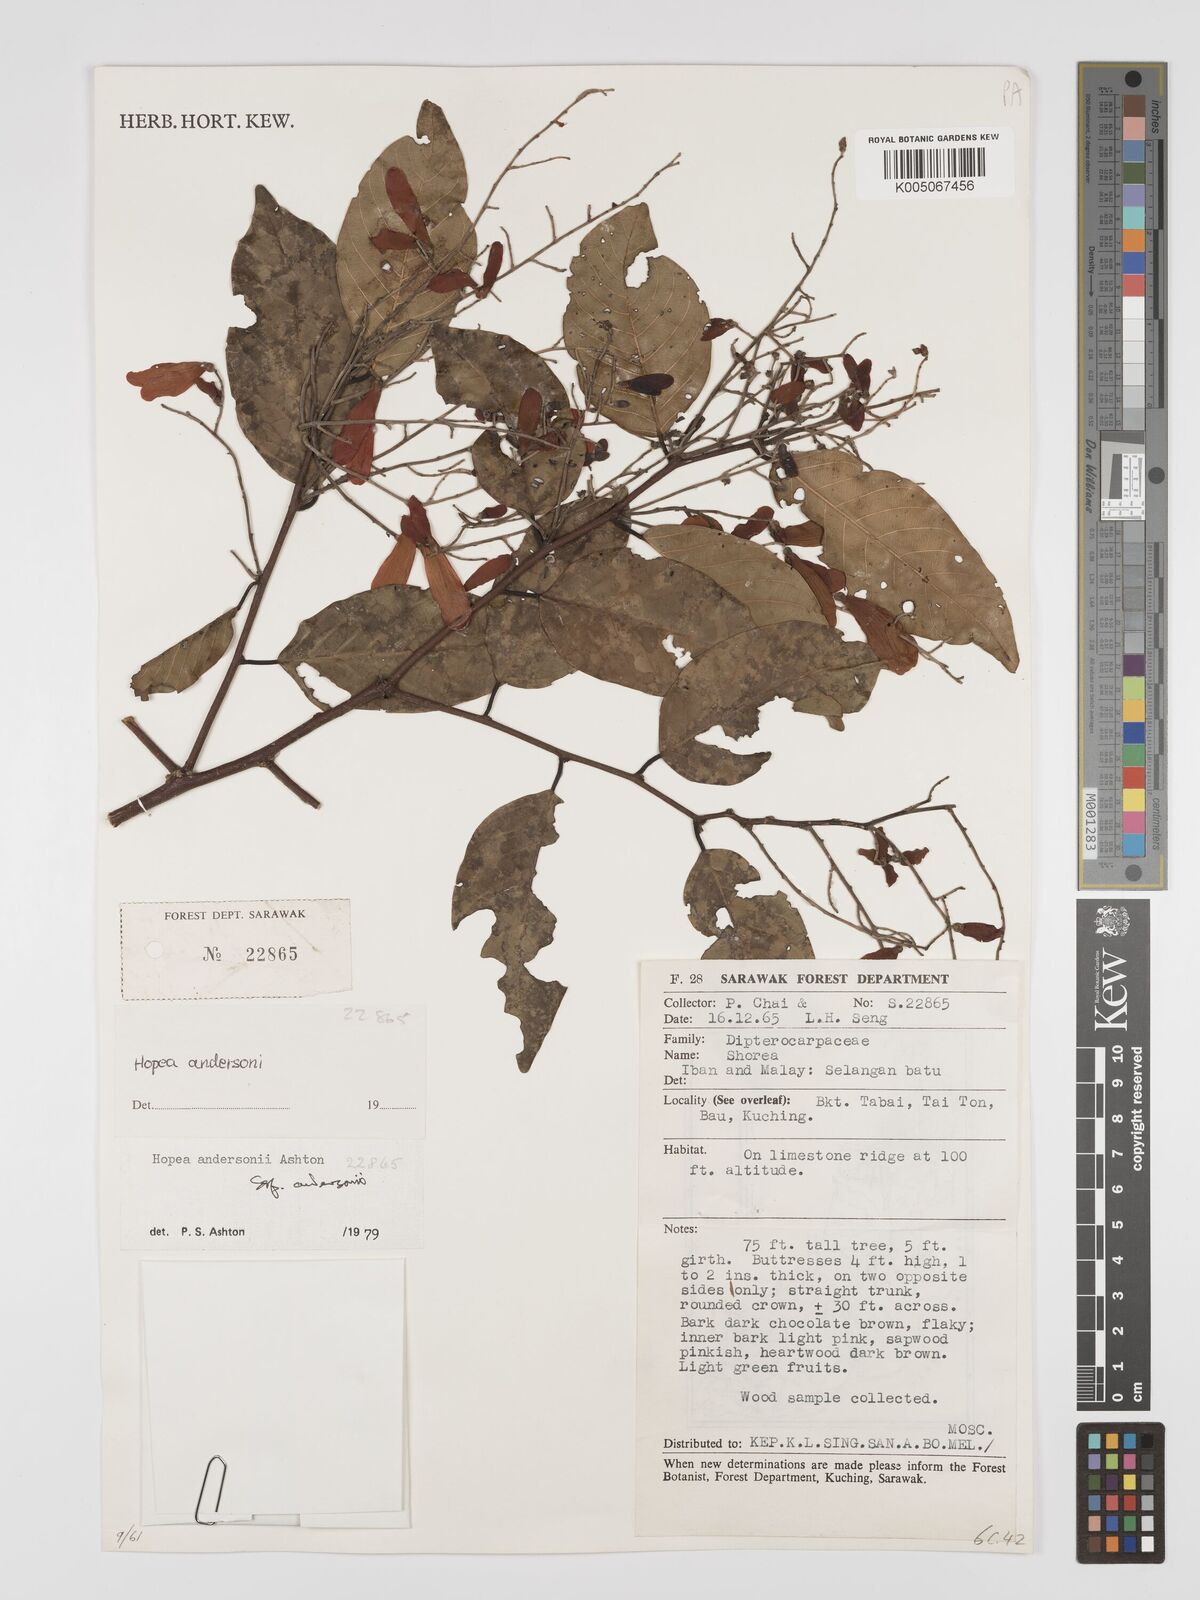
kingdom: Plantae
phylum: Tracheophyta
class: Magnoliopsida
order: Malvales
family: Dipterocarpaceae
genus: Hopea
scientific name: Hopea andersonii
